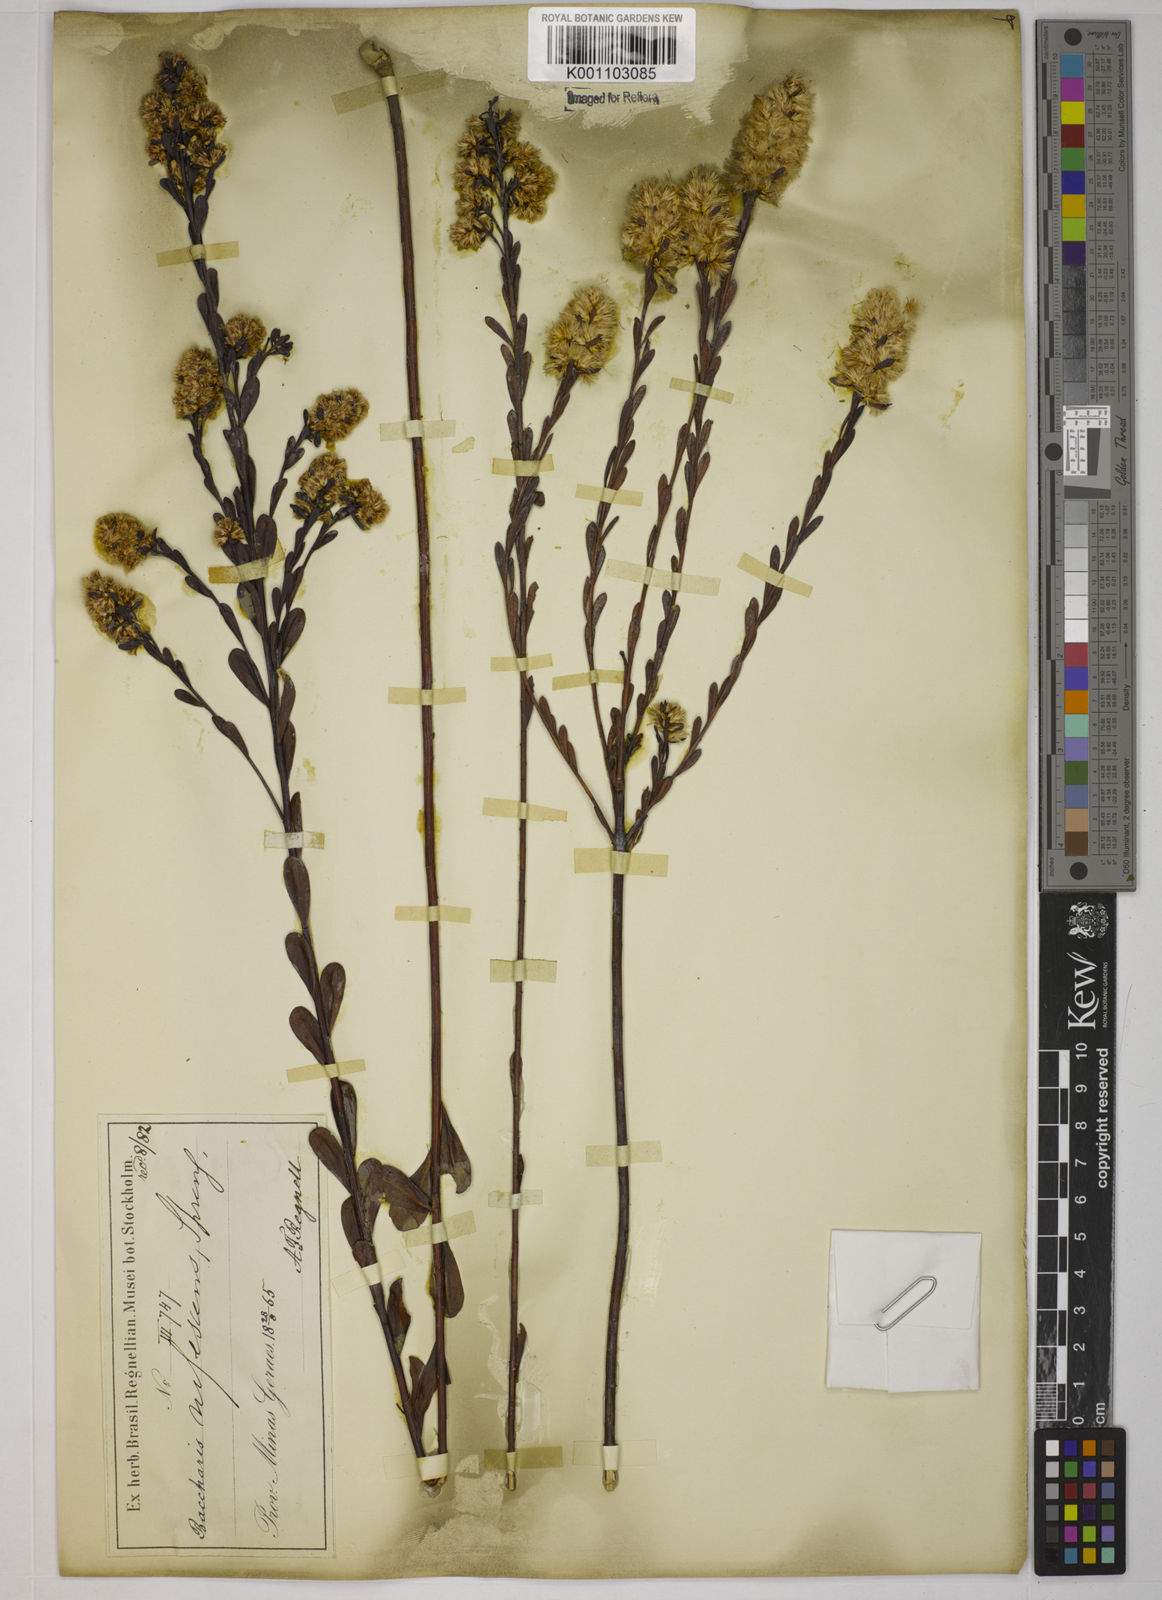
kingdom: Plantae
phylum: Tracheophyta
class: Magnoliopsida
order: Asterales
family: Asteraceae
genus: Baccharis
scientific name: Baccharis linearifolia
